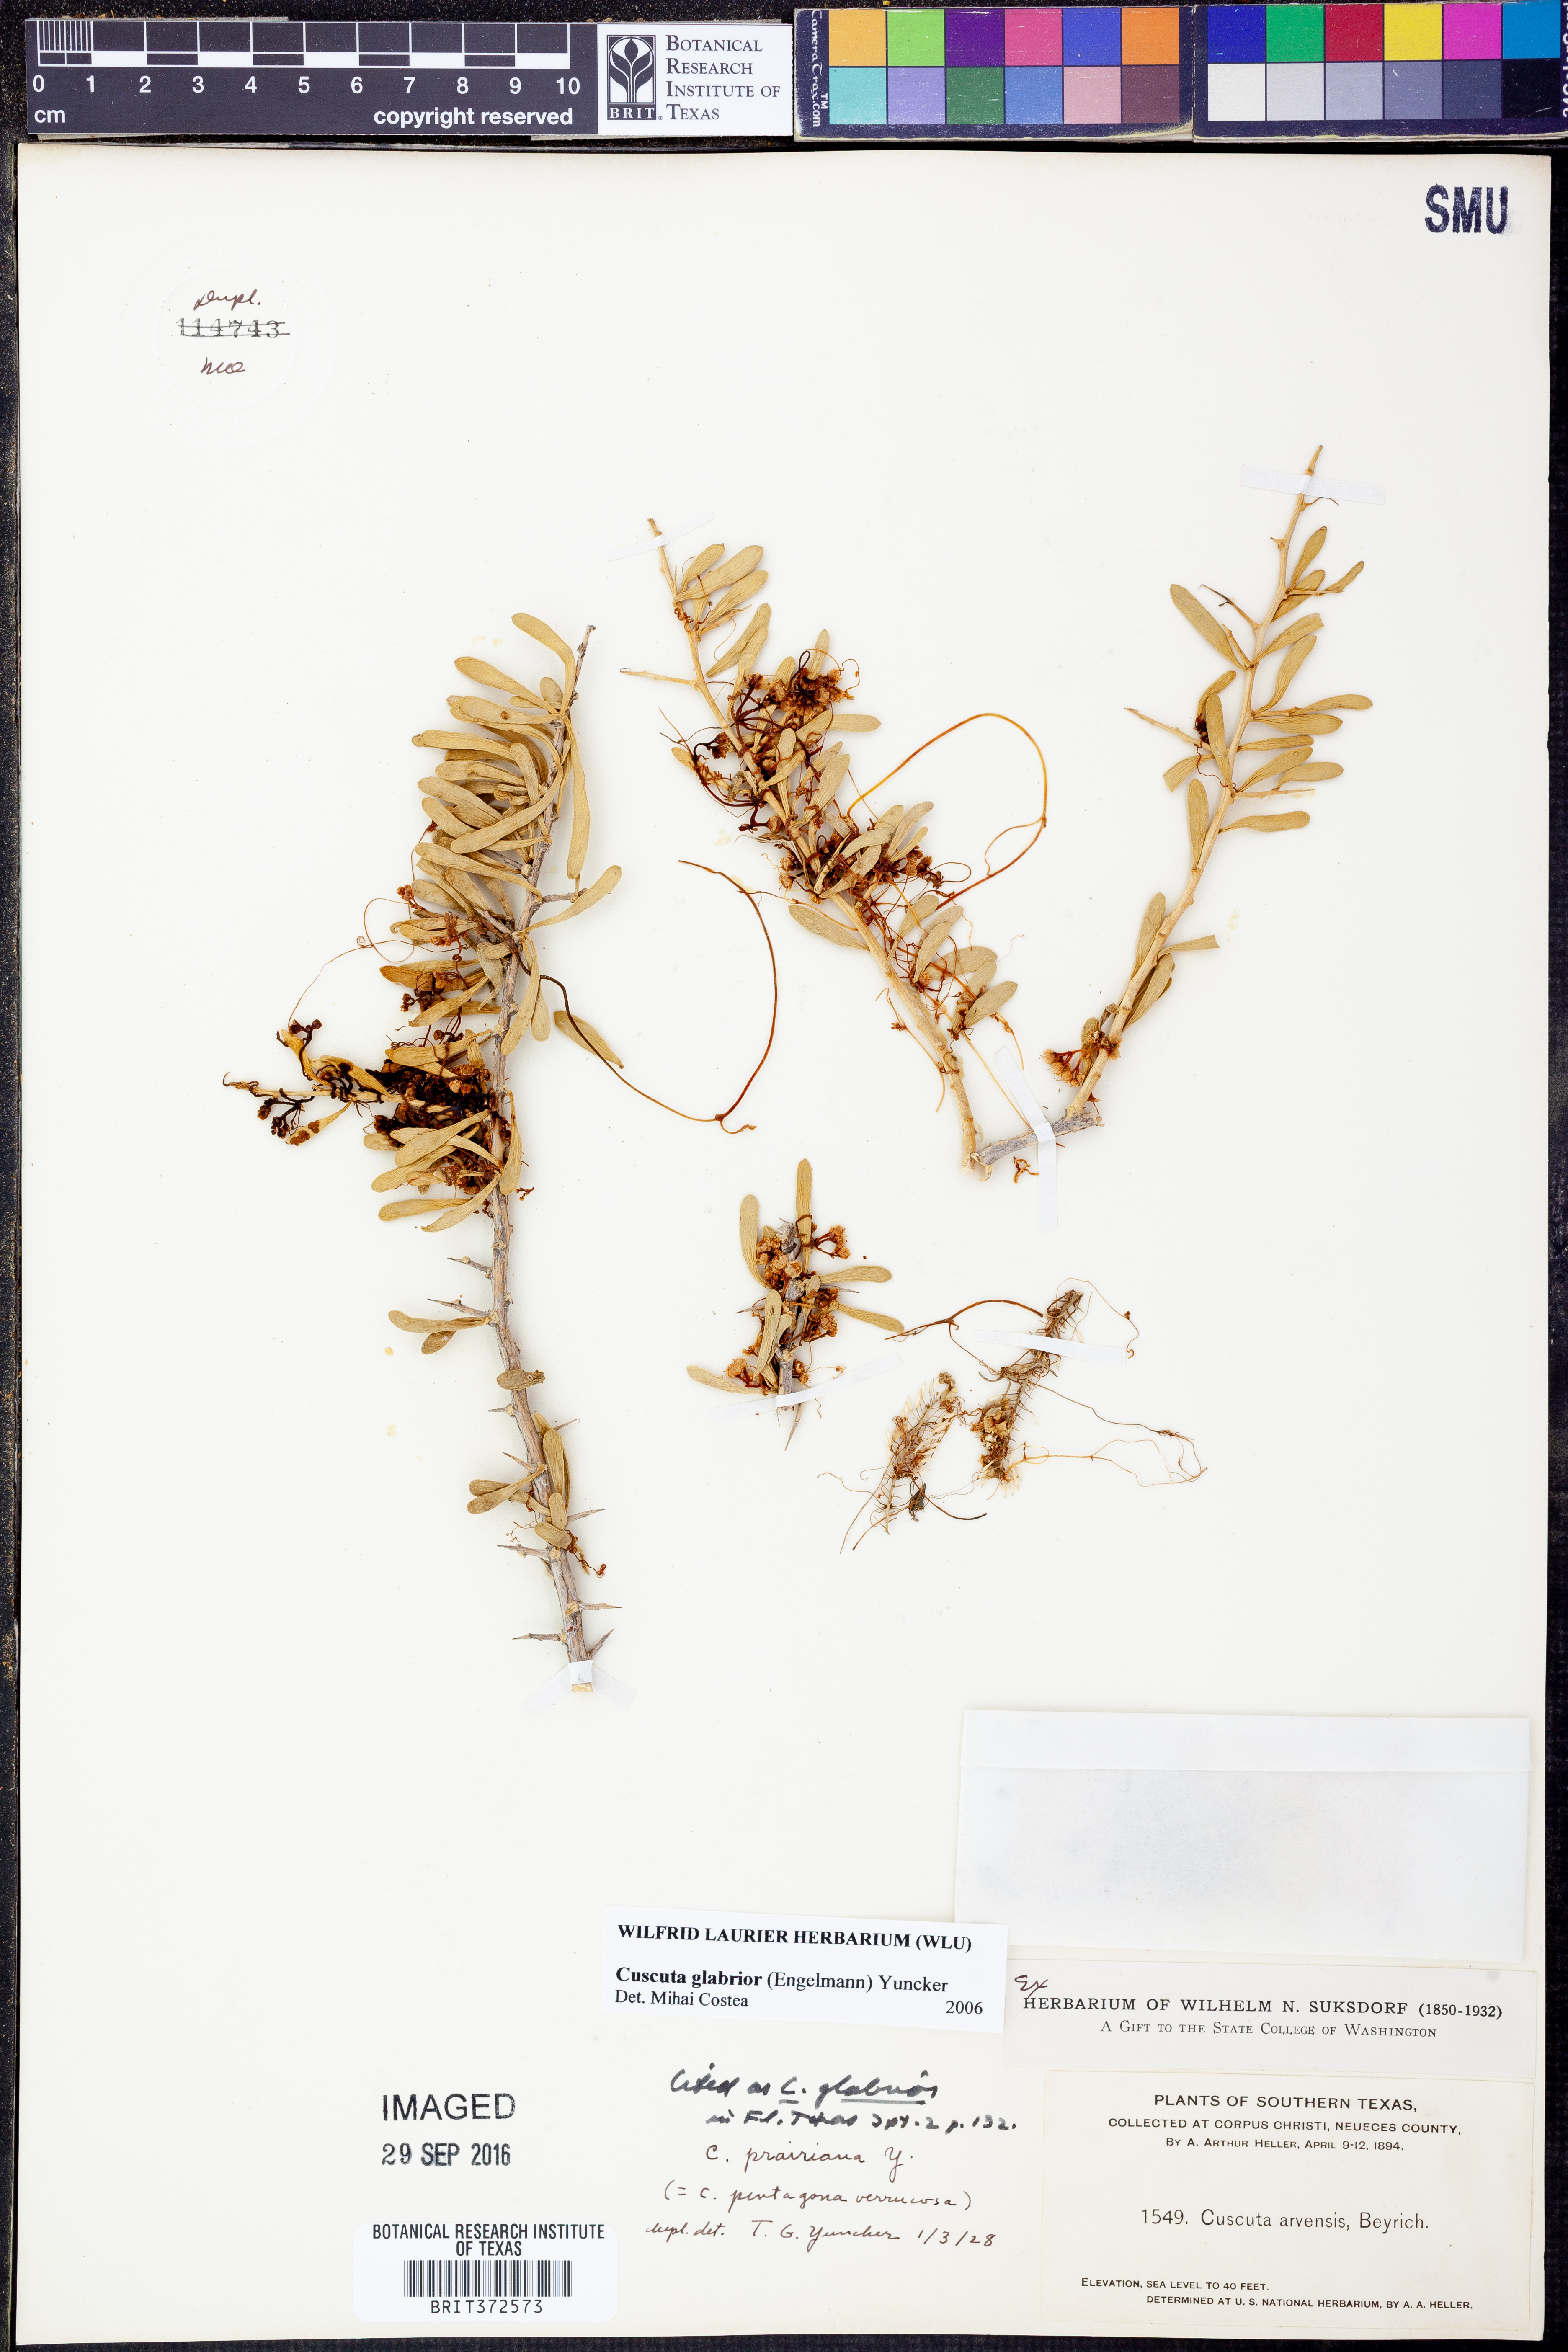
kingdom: Plantae
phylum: Tracheophyta
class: Magnoliopsida
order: Solanales
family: Convolvulaceae
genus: Cuscuta
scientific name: Cuscuta glabrior
